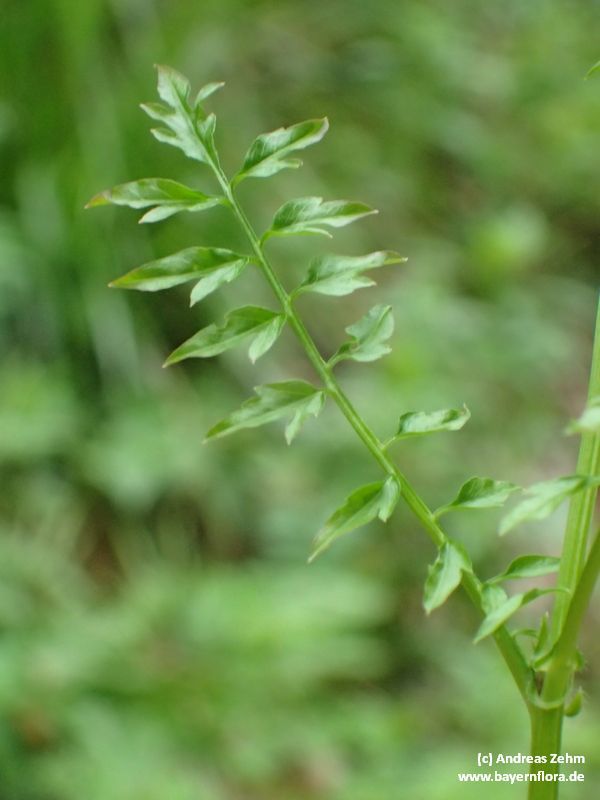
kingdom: Plantae
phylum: Tracheophyta
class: Magnoliopsida
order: Brassicales
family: Brassicaceae
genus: Cardamine
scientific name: Cardamine impatiens
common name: Narrow-leaved bitter-cress
